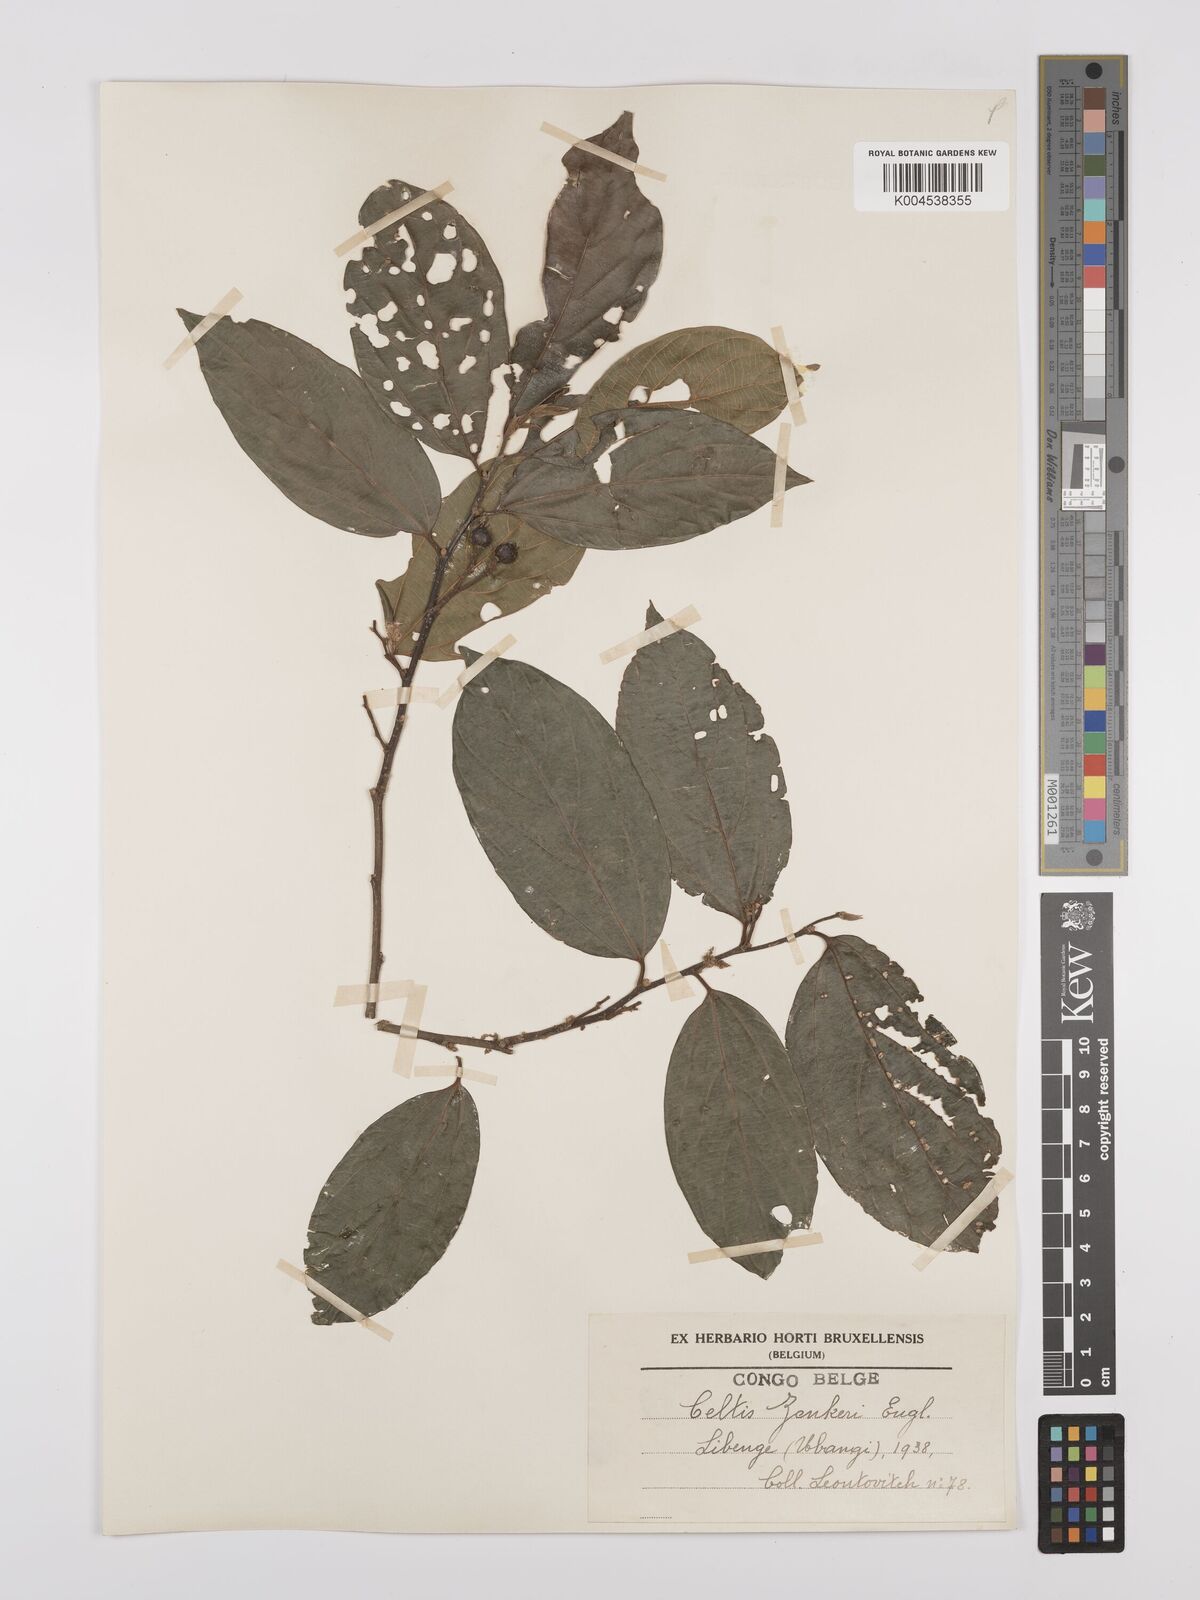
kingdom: Plantae
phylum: Tracheophyta
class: Magnoliopsida
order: Rosales
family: Cannabaceae
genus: Celtis
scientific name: Celtis zenkeri
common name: African celtis
